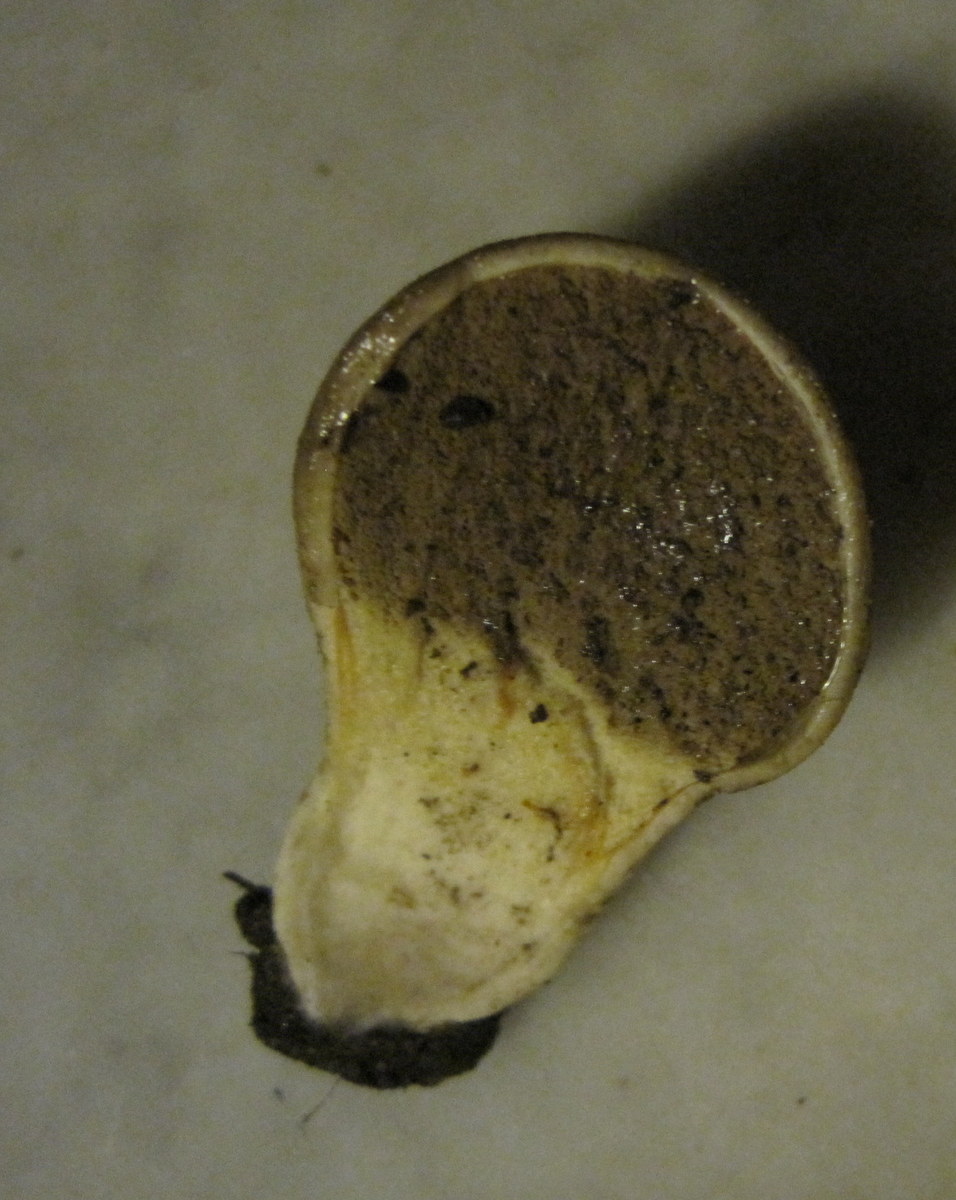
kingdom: Fungi
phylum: Basidiomycota
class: Agaricomycetes
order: Agaricales
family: Lycoperdaceae
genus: Lycoperdon
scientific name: Lycoperdon lividum
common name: mark-støvbold
